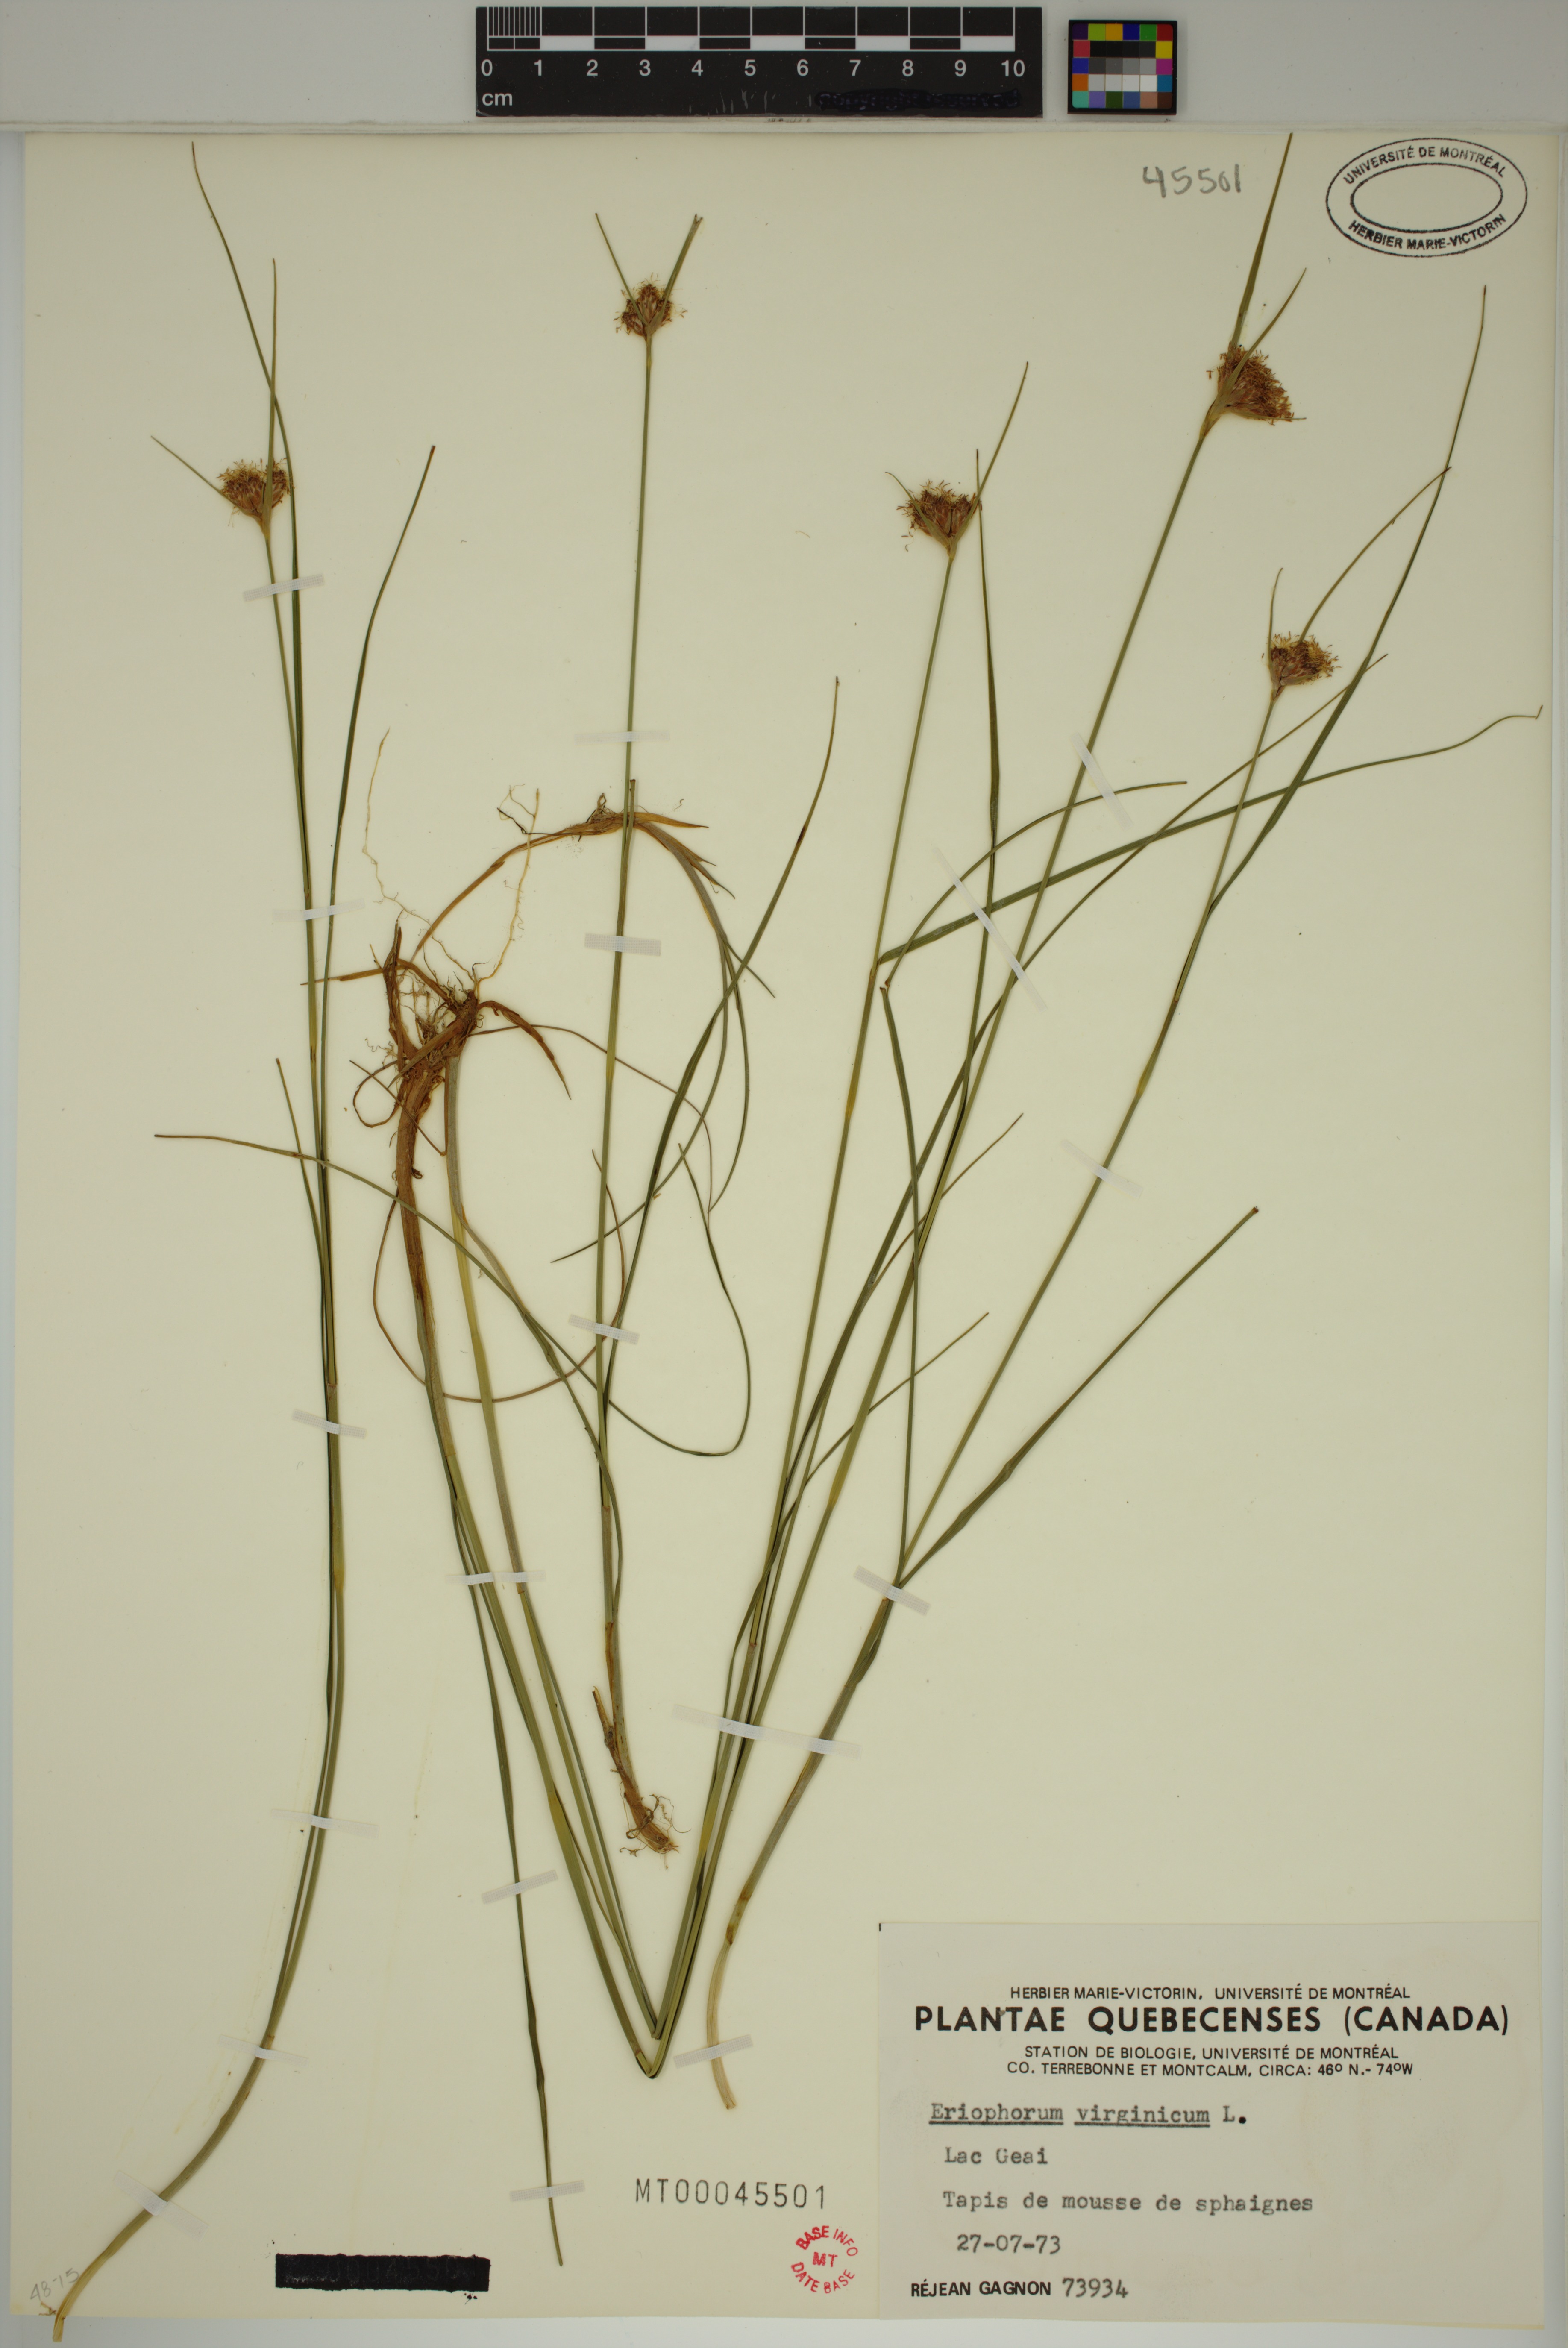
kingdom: Plantae
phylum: Tracheophyta
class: Liliopsida
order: Poales
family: Cyperaceae
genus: Eriophorum
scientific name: Eriophorum virginicum
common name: Tawny cottongrass
